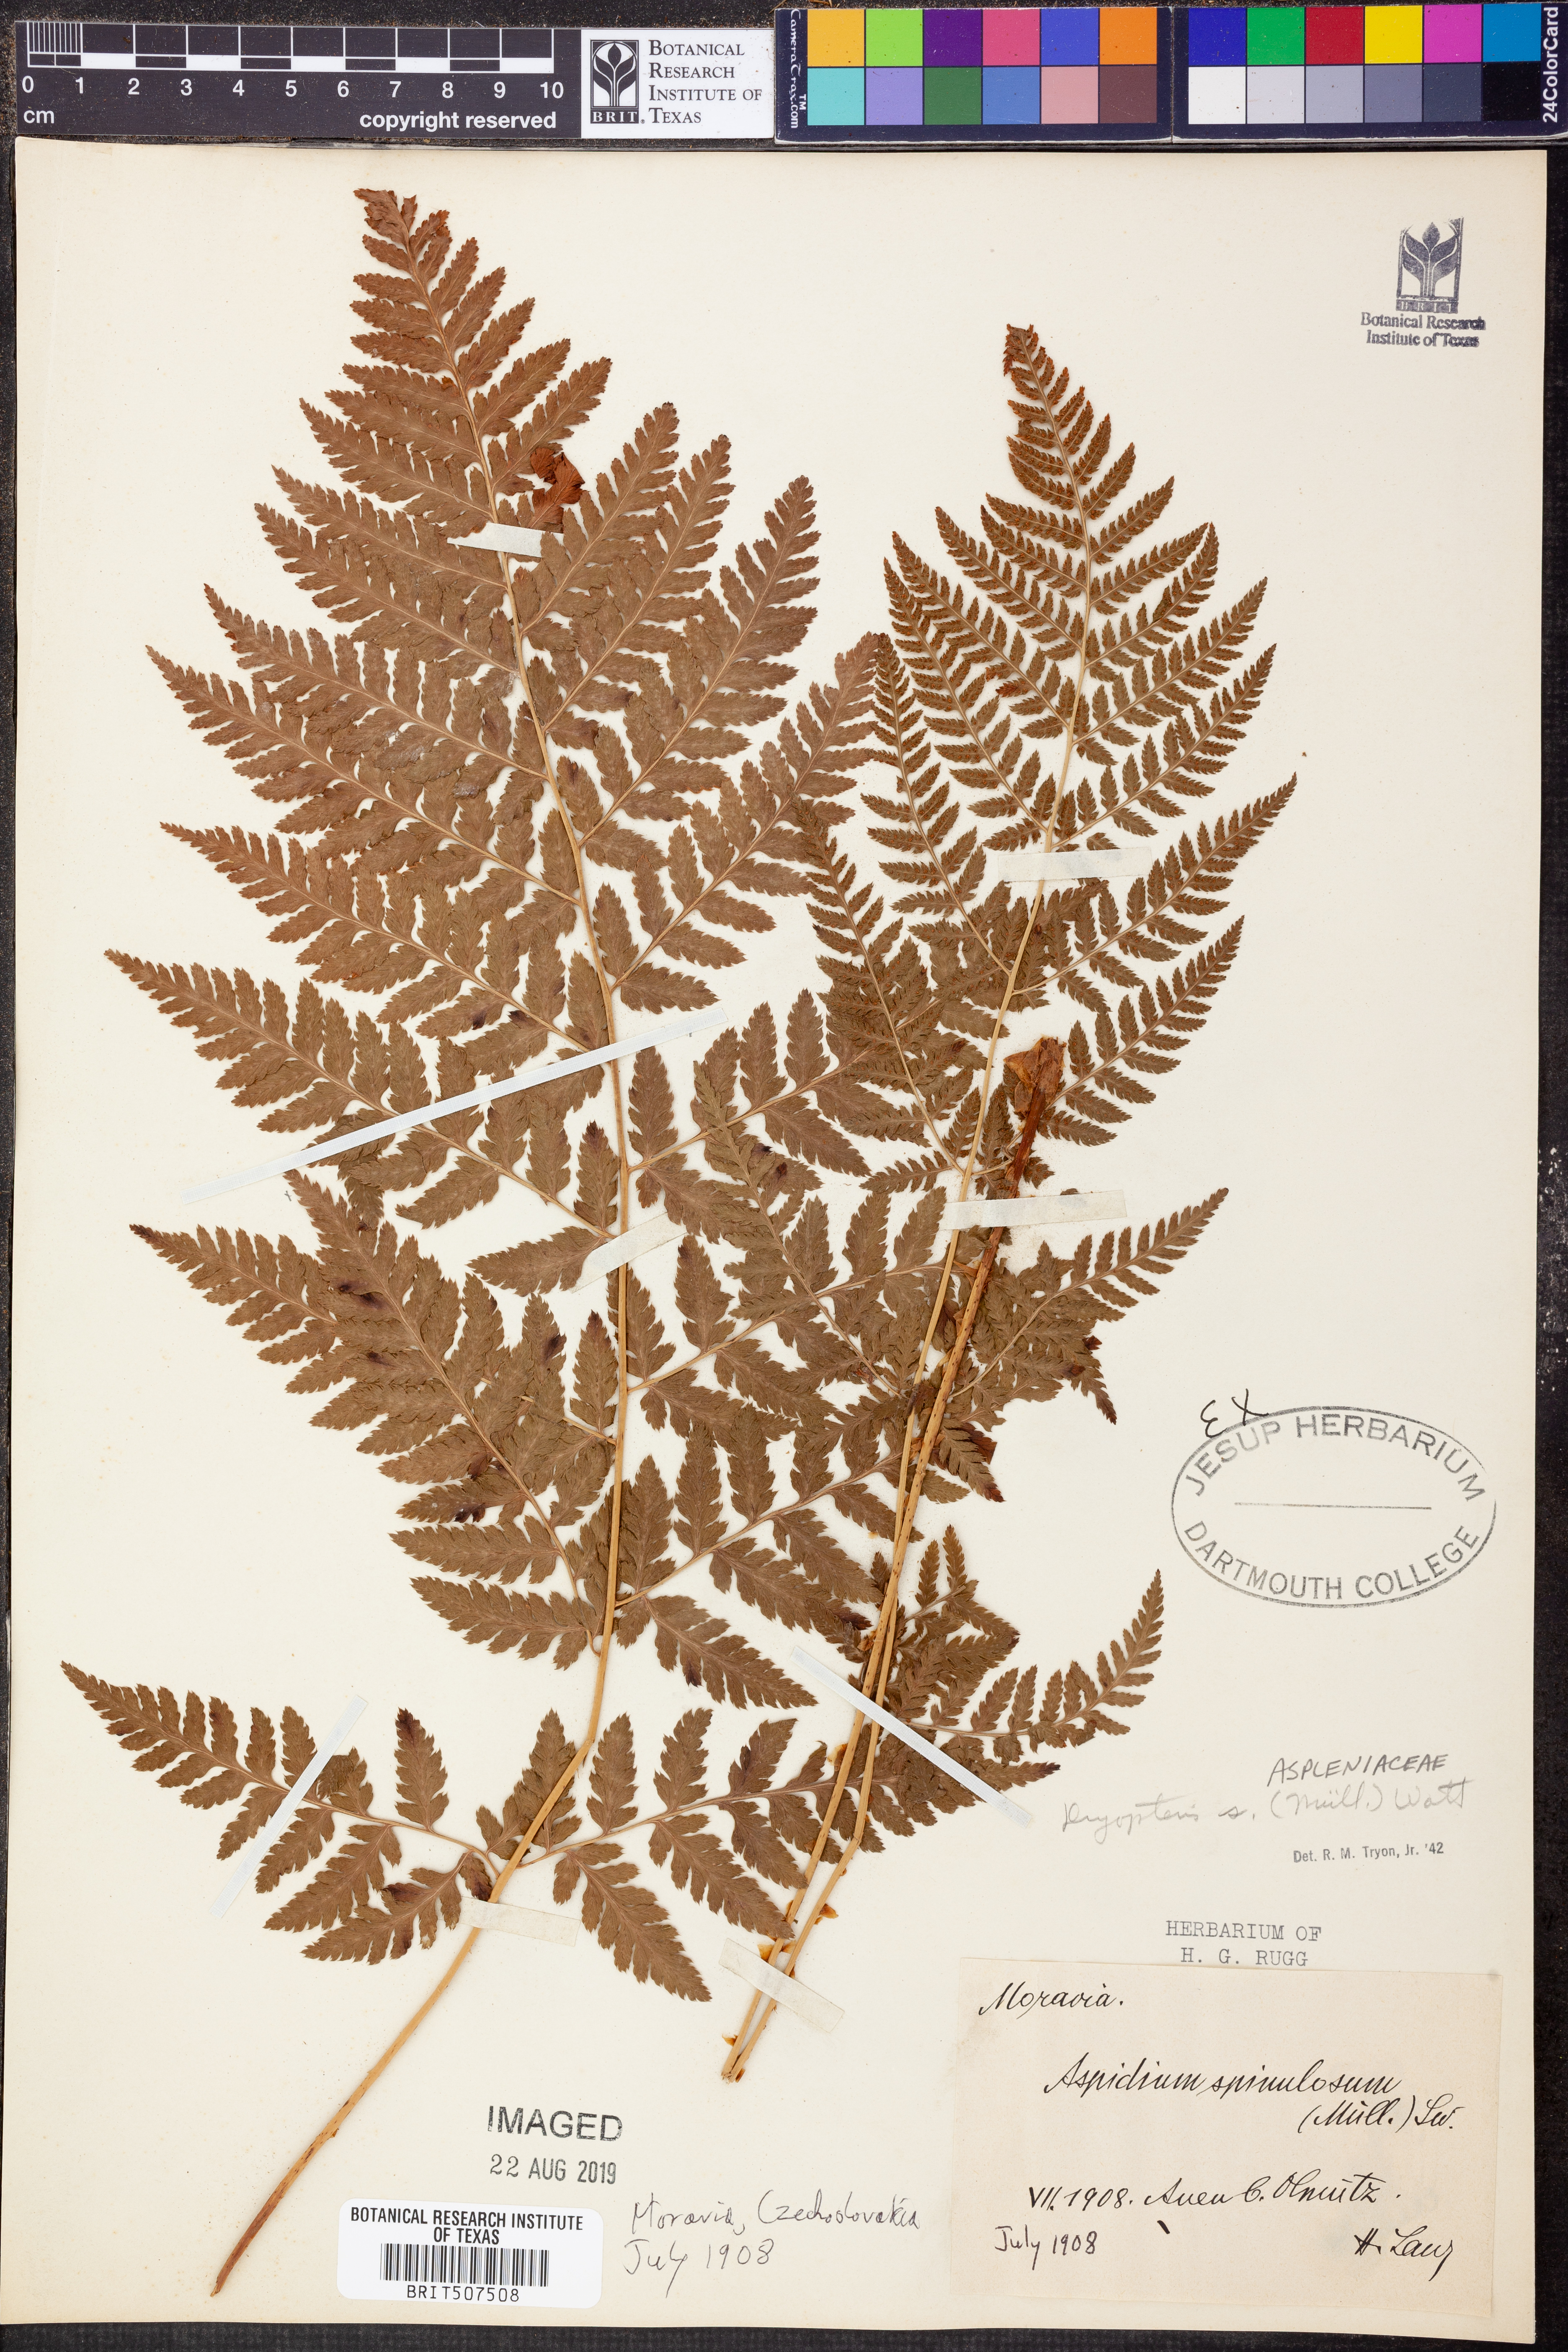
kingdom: Plantae
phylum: Tracheophyta
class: Polypodiopsida
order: Polypodiales
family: Dryopteridaceae
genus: Dryopteris
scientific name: Dryopteris carthusiana
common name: Narrow buckler-fern
